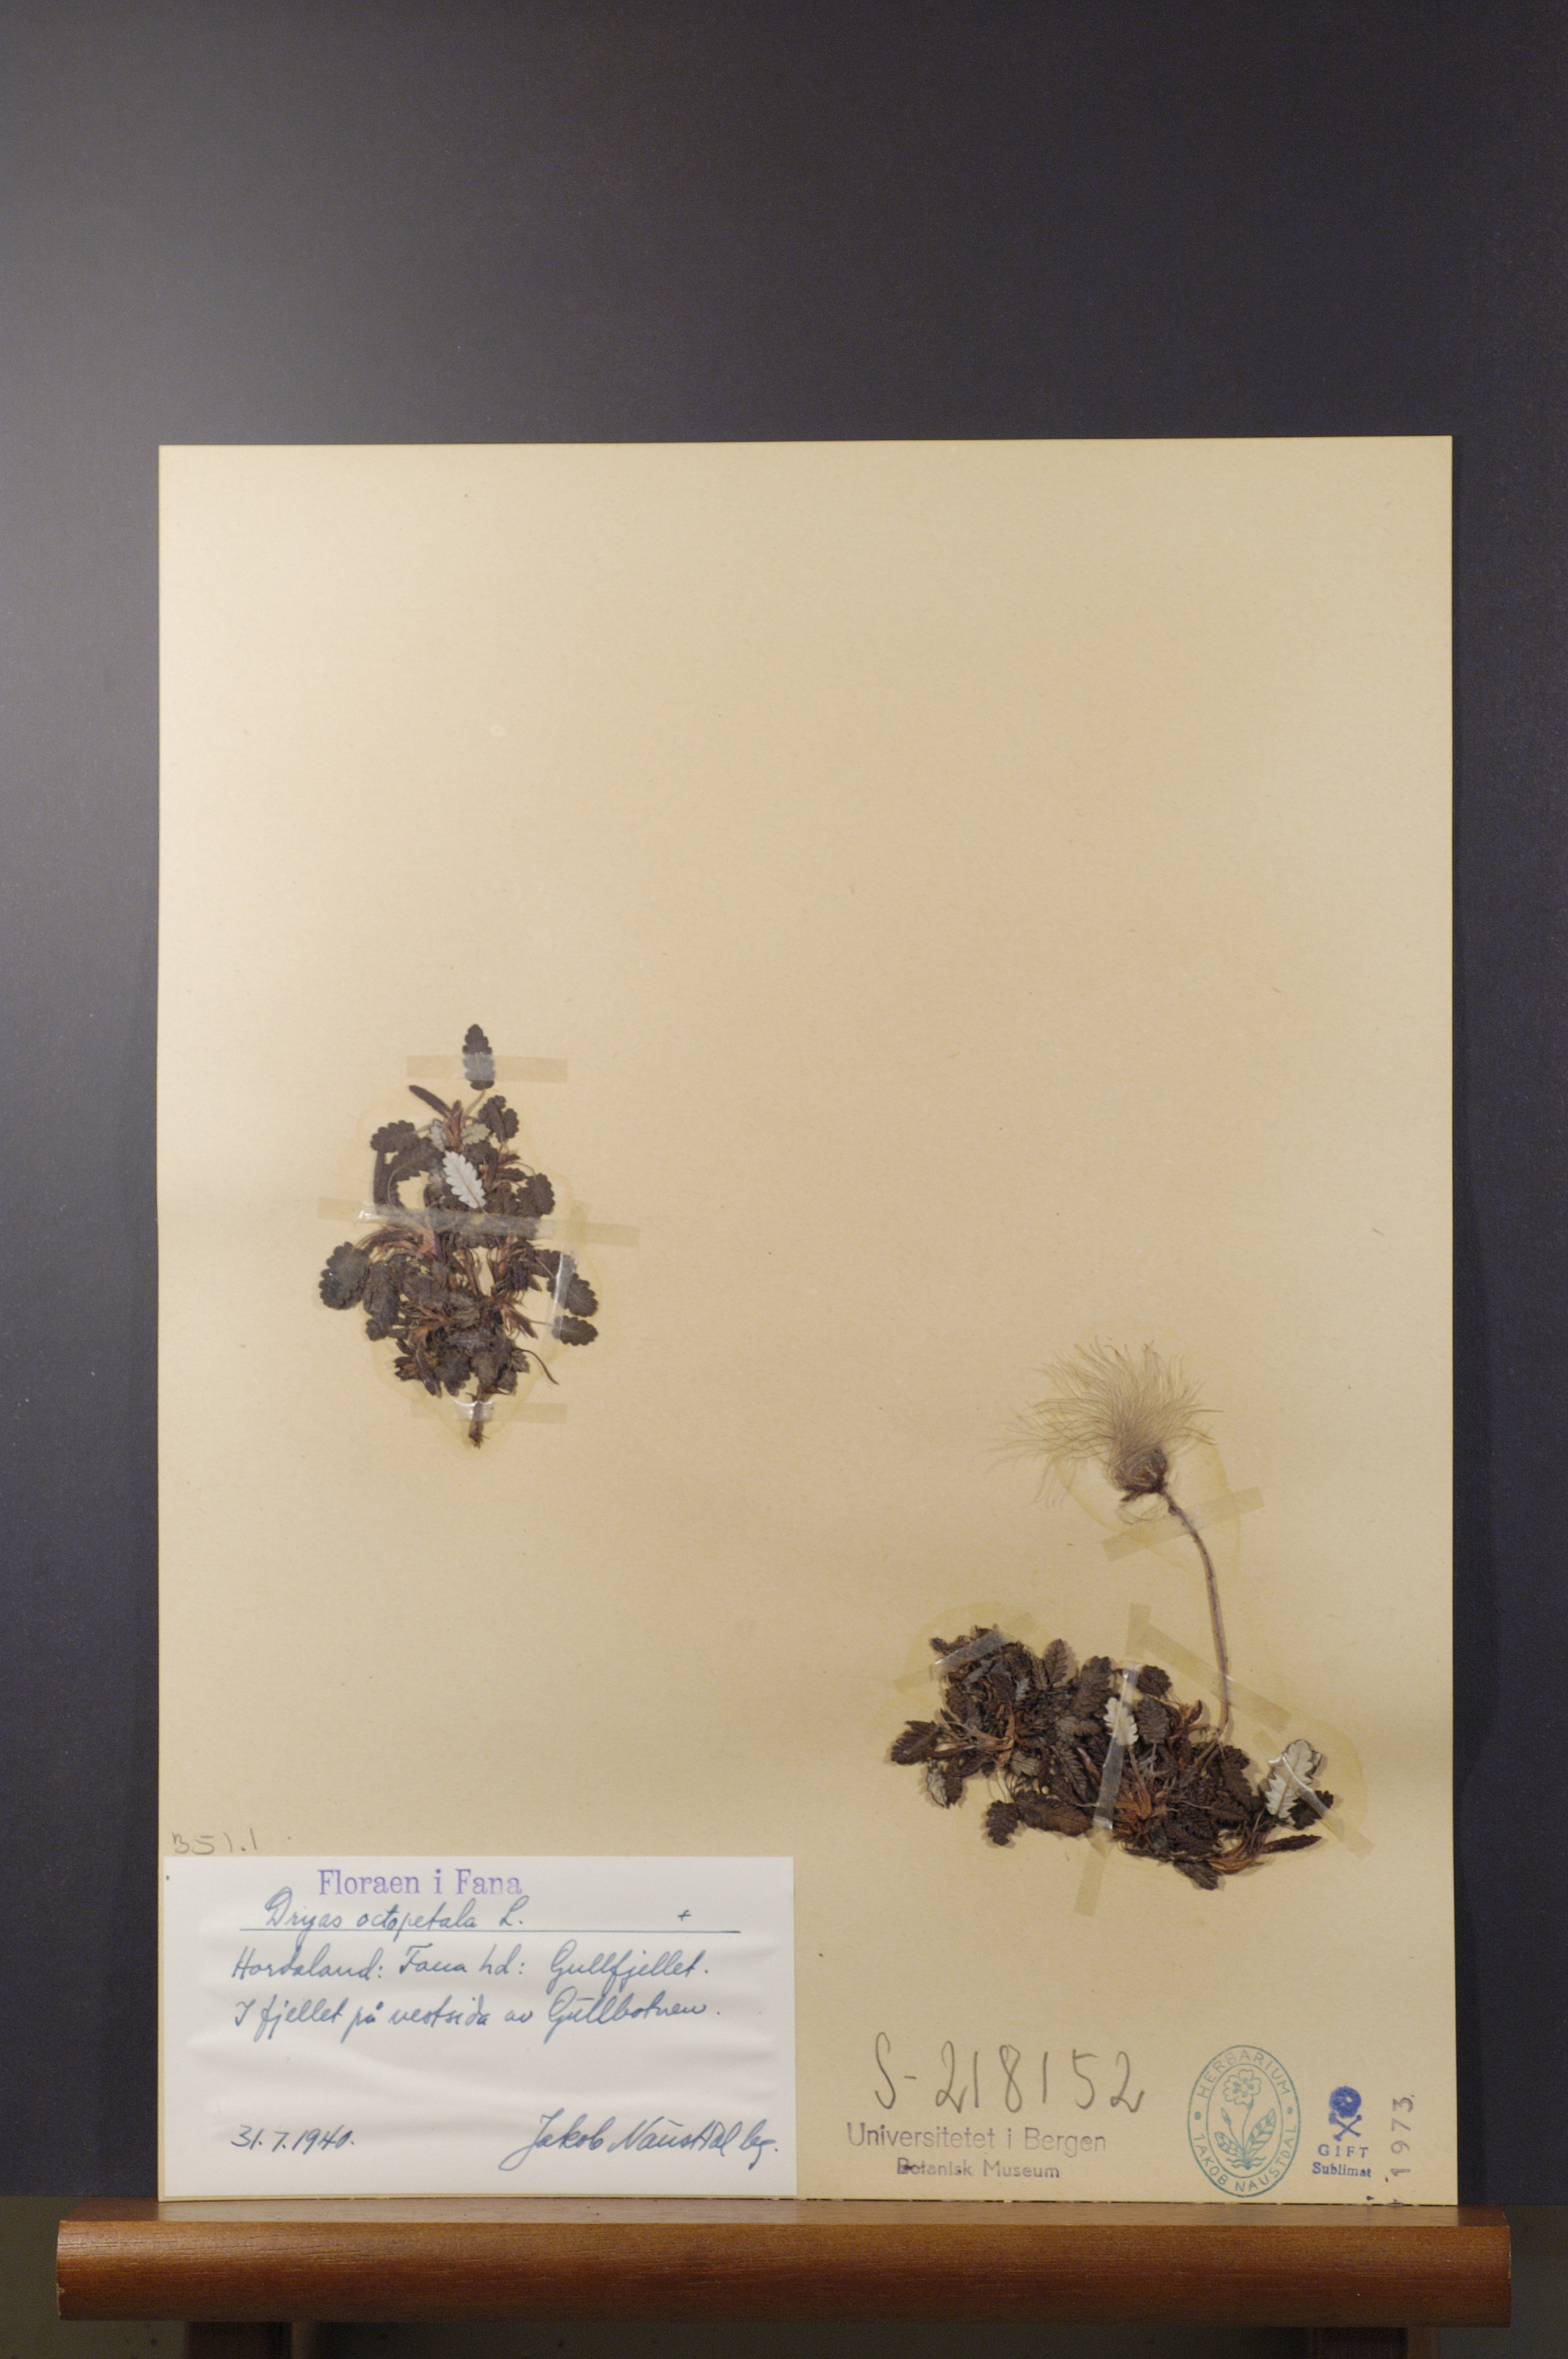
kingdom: Plantae
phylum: Tracheophyta
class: Magnoliopsida
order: Rosales
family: Rosaceae
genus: Dryas
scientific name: Dryas octopetala
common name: Eight-petal mountain-avens
